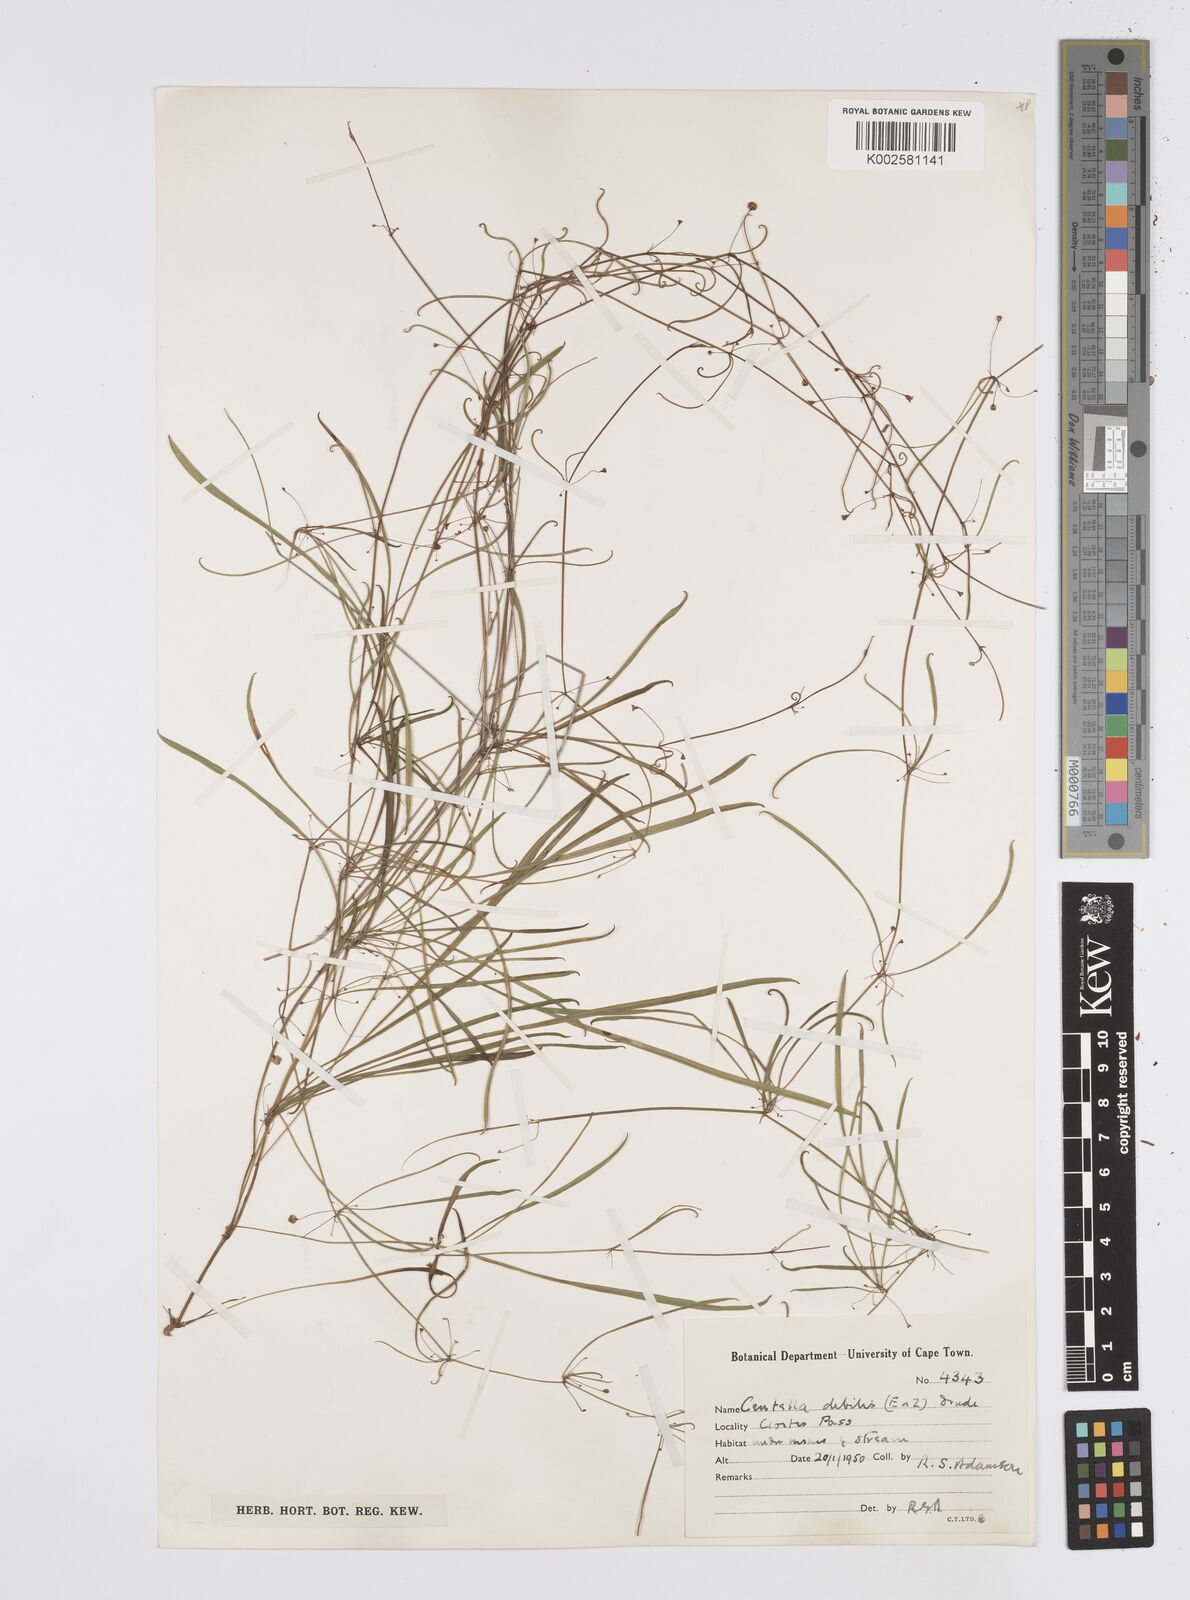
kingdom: Plantae
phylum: Tracheophyta
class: Magnoliopsida
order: Apiales
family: Apiaceae
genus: Centella
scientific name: Centella debilis
